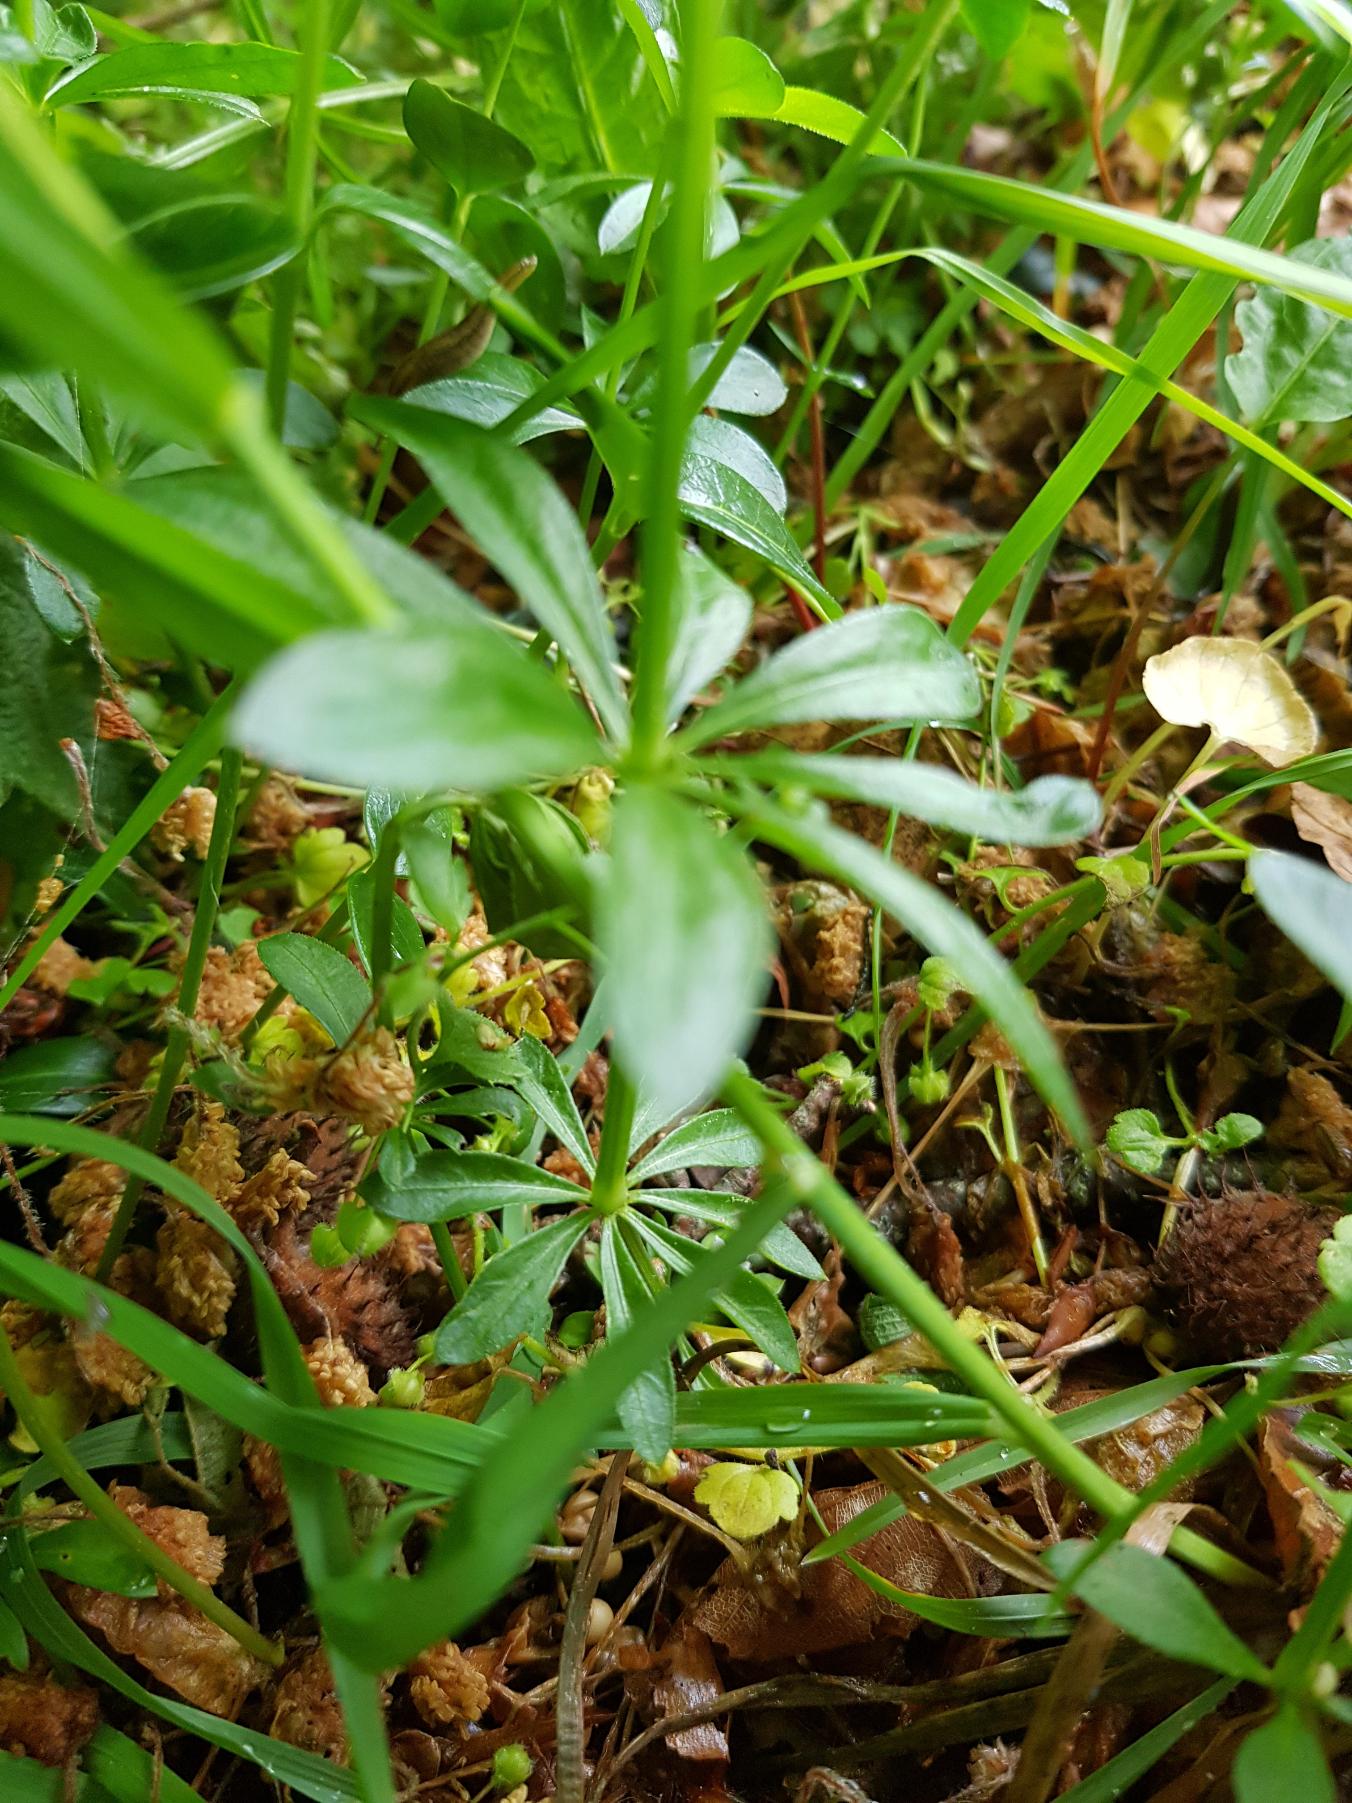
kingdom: Plantae
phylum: Tracheophyta
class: Magnoliopsida
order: Gentianales
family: Rubiaceae
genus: Galium
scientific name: Galium odoratum
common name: Skovmærke
